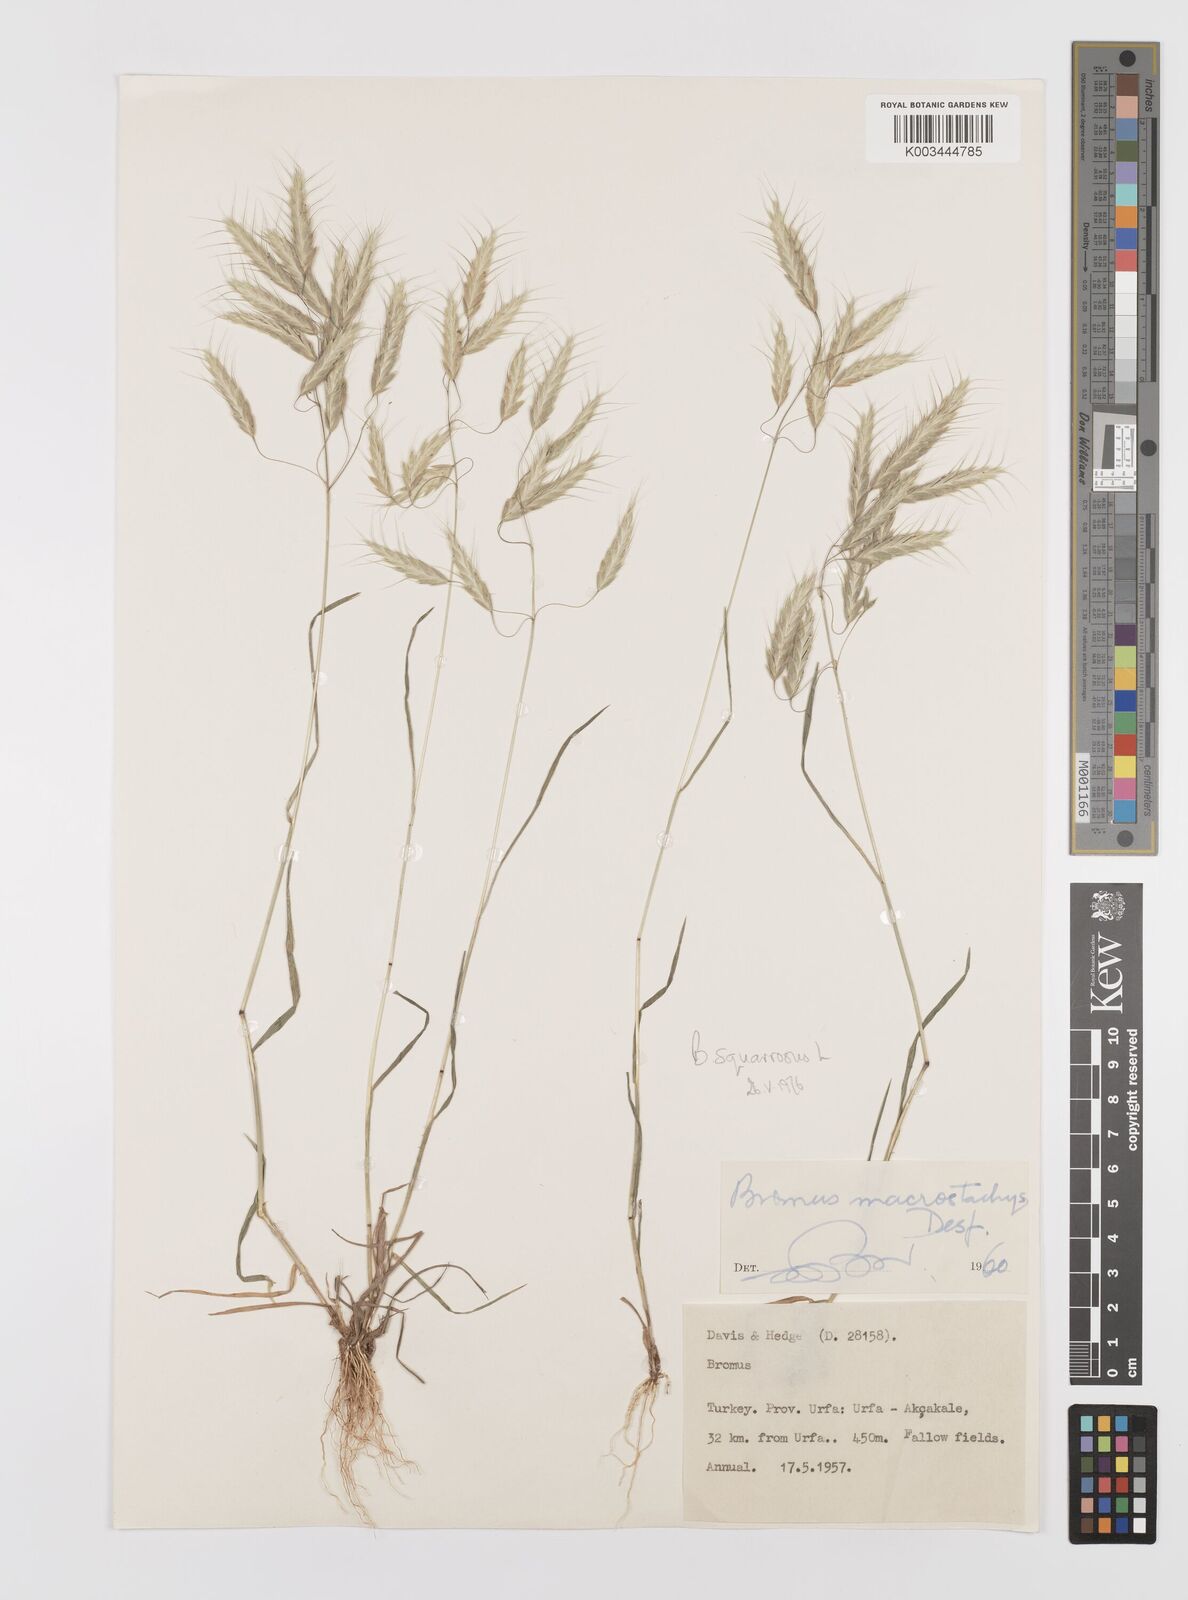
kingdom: Plantae
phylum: Tracheophyta
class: Liliopsida
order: Poales
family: Poaceae
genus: Bromus
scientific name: Bromus squarrosus
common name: Corn brome
